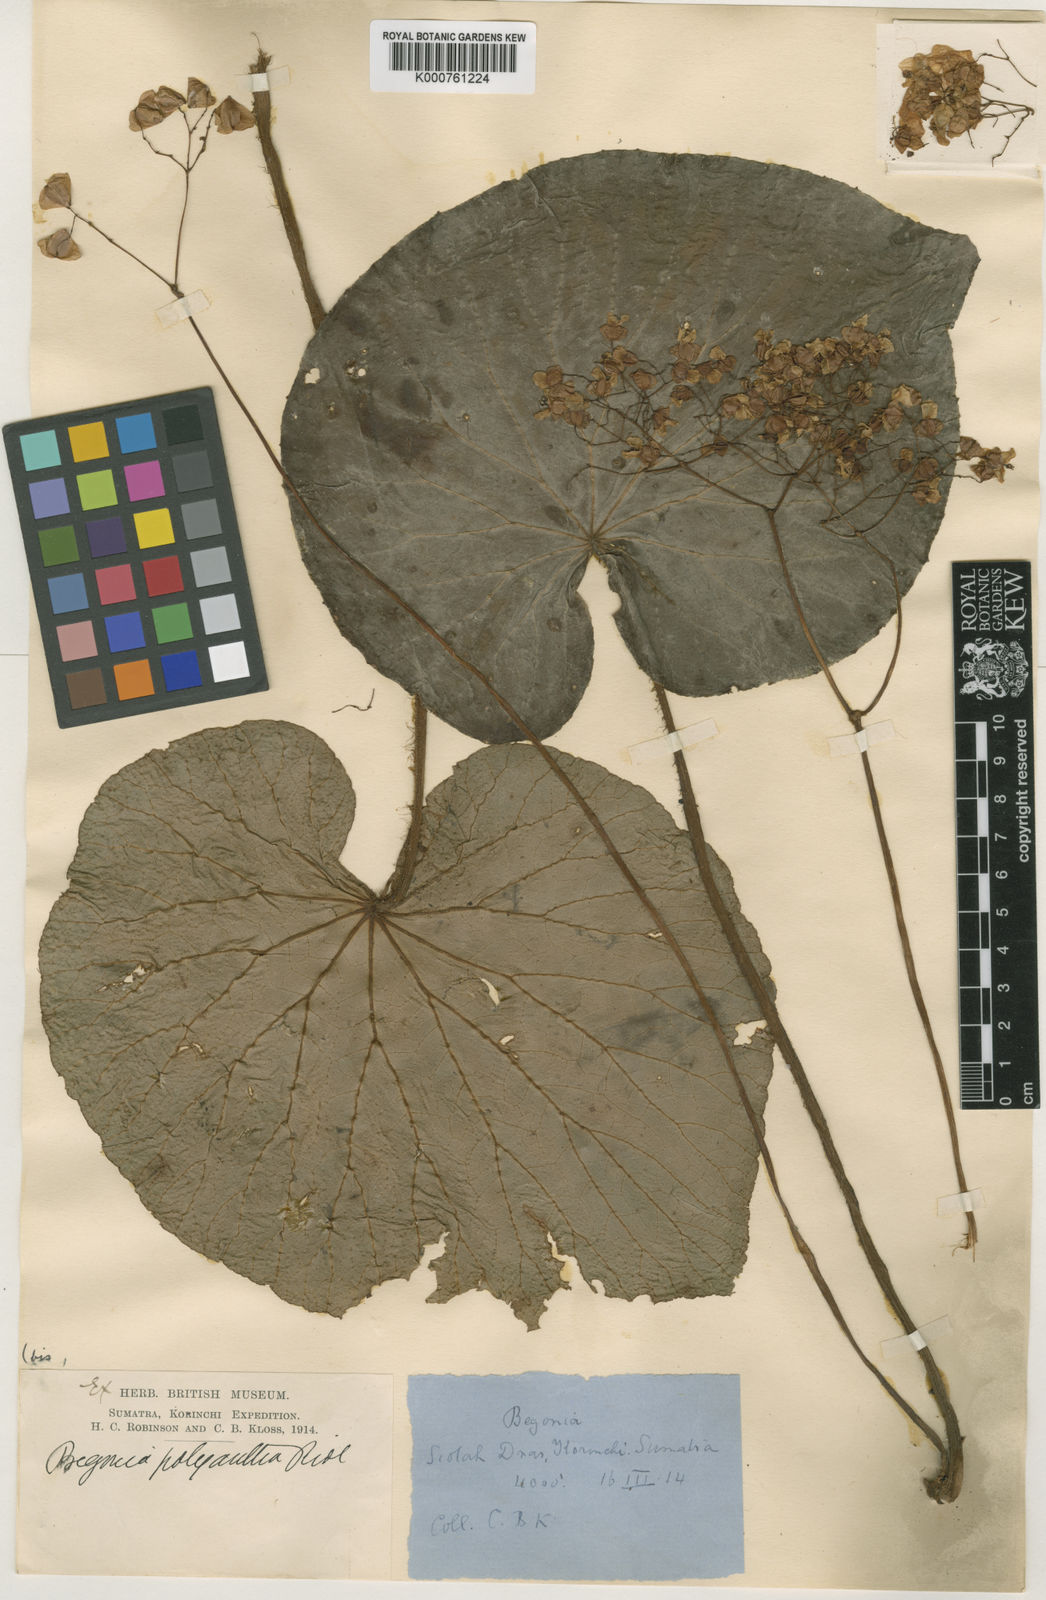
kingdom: Plantae
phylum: Tracheophyta
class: Magnoliopsida
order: Cucurbitales
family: Begoniaceae
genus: Begonia
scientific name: Begonia sychnantha
